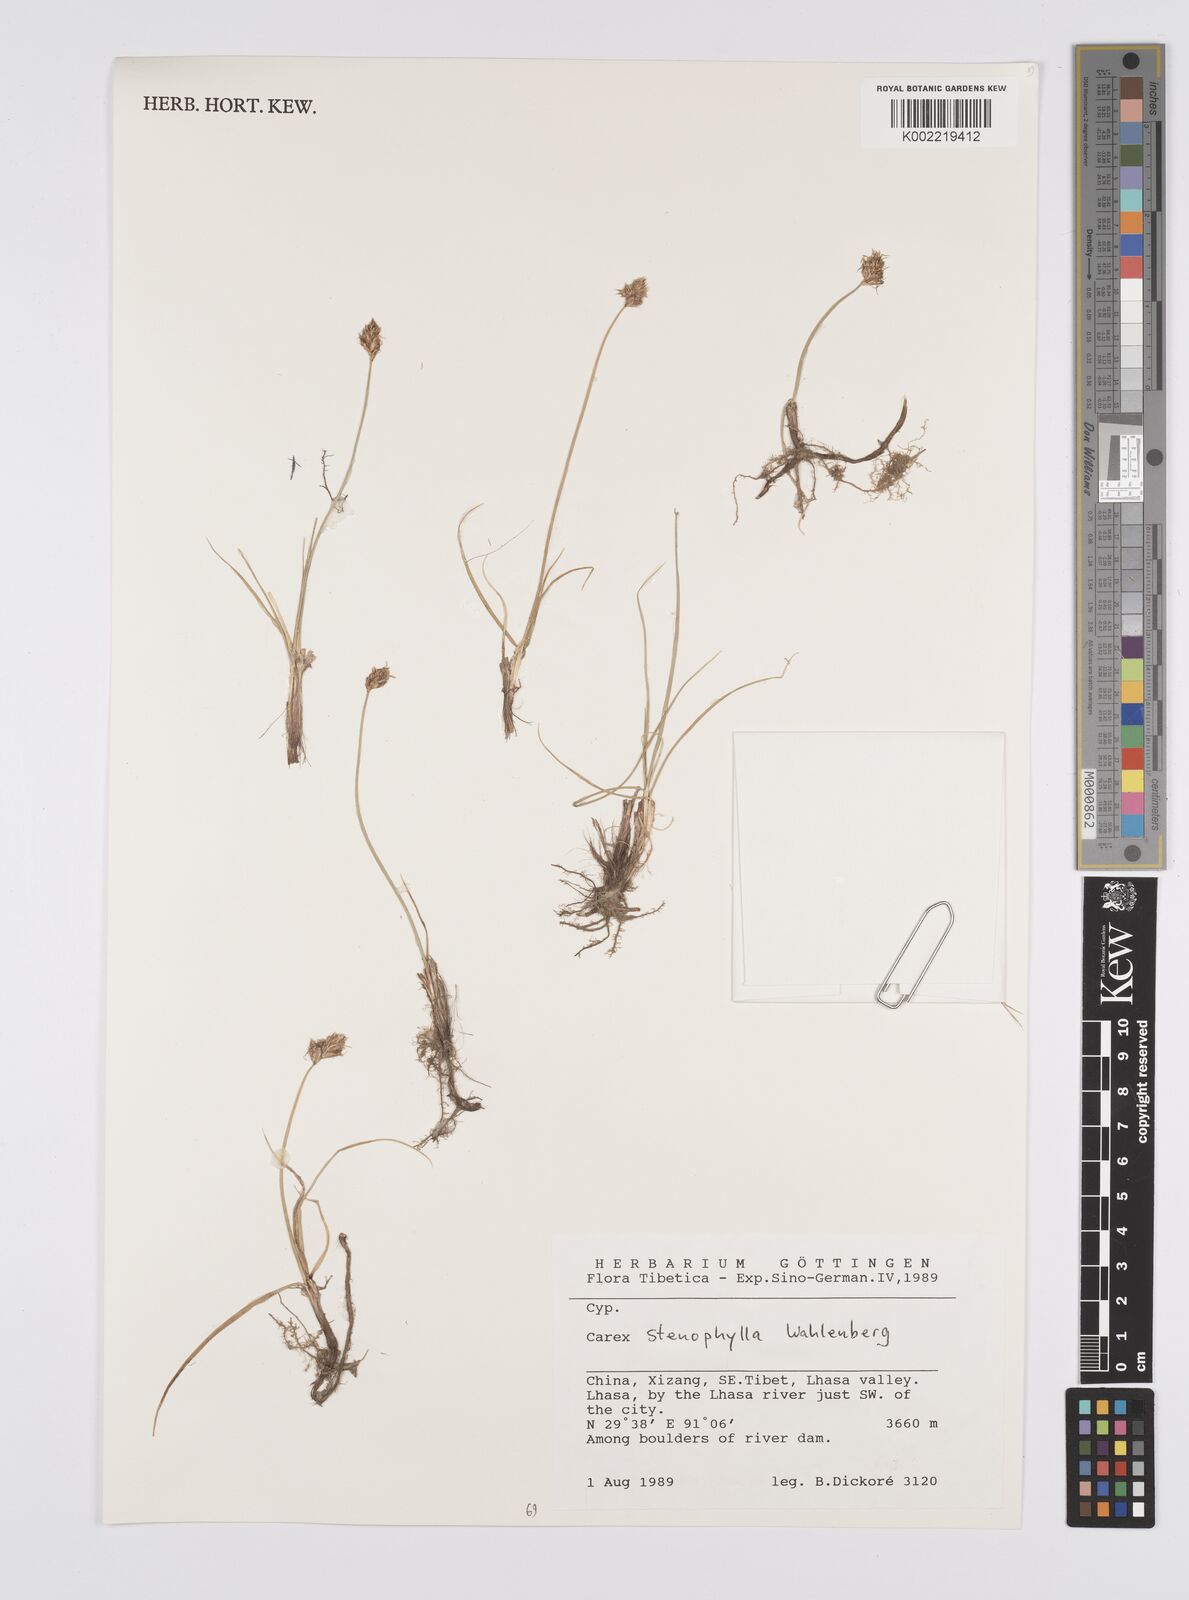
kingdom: Plantae
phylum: Tracheophyta
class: Liliopsida
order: Poales
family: Cyperaceae
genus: Carex
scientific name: Carex stenophylla
